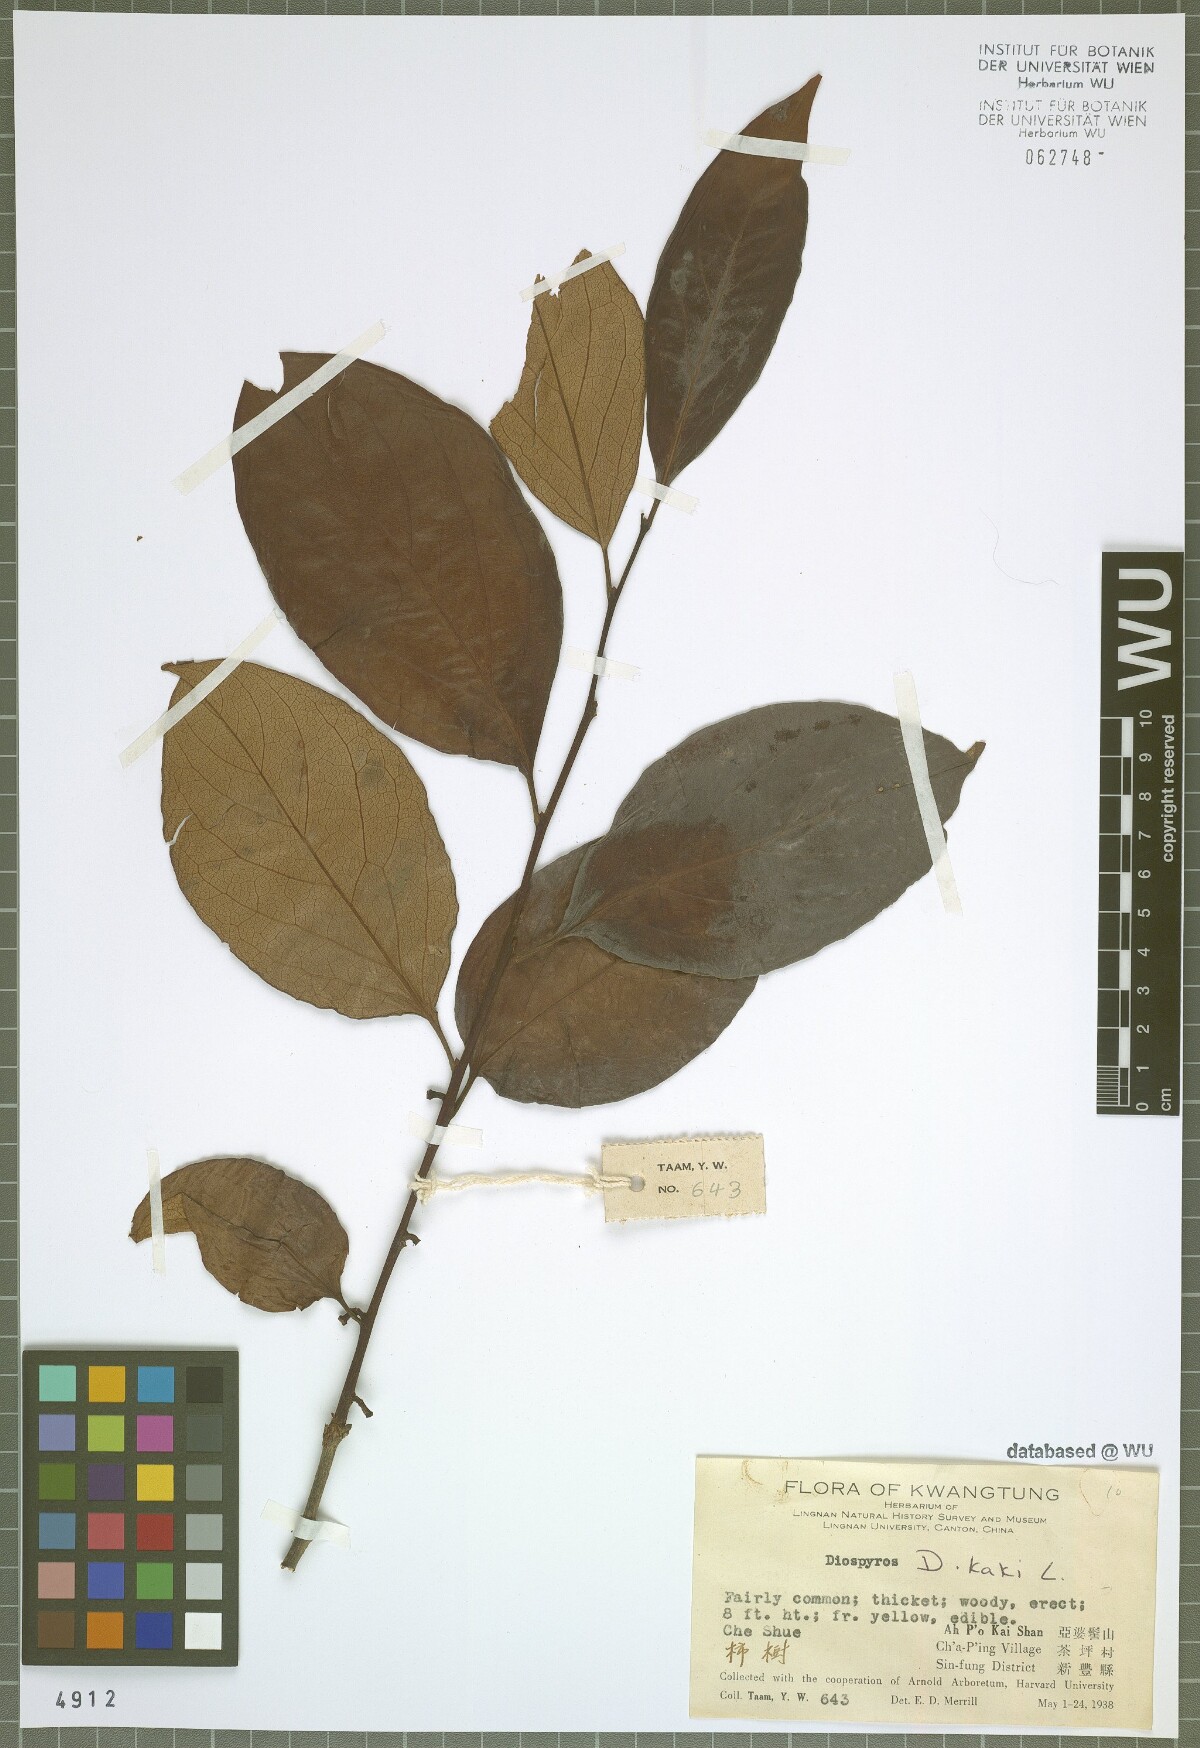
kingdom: Plantae
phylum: Tracheophyta
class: Magnoliopsida
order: Ericales
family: Ebenaceae
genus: Diospyros
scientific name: Diospyros kaki
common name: Persimmon
